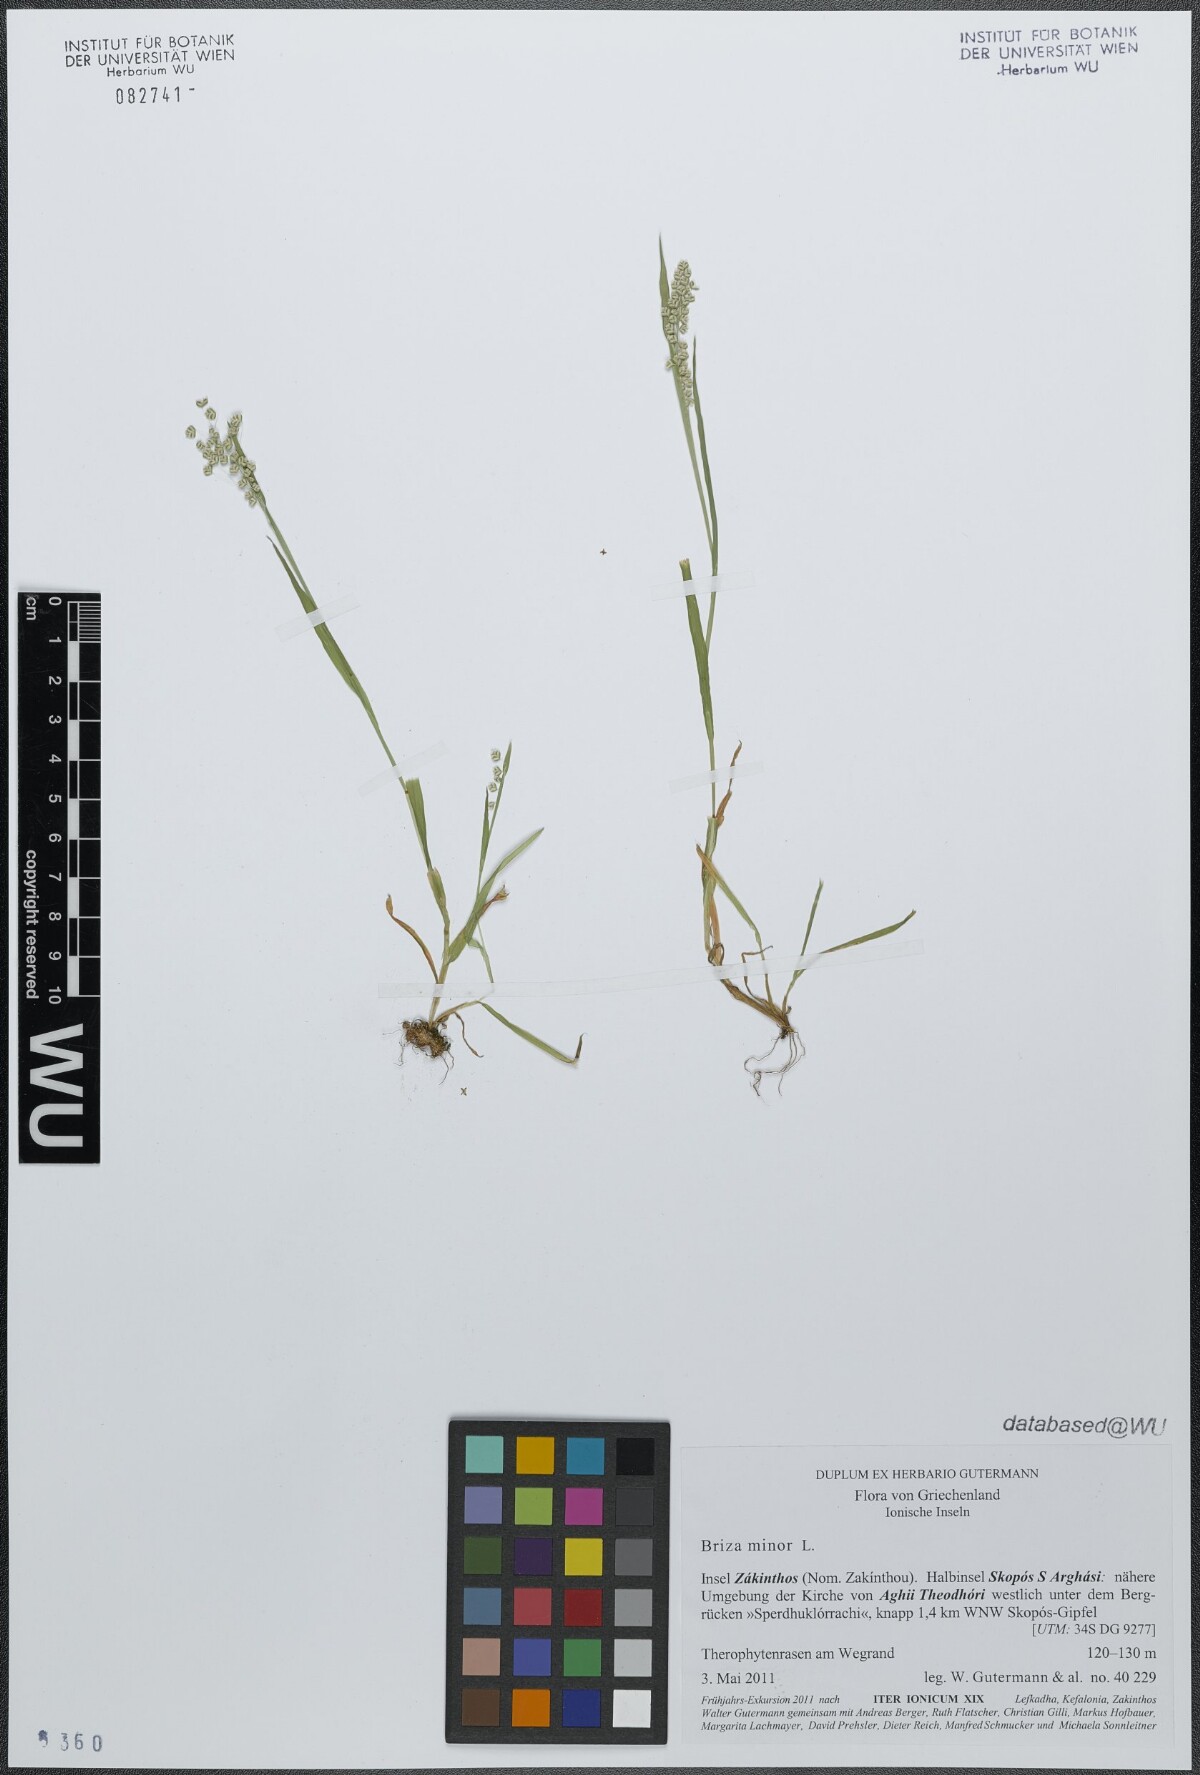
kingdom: Plantae
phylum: Tracheophyta
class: Liliopsida
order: Poales
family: Poaceae
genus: Briza
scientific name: Briza minor
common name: Lesser quaking-grass
